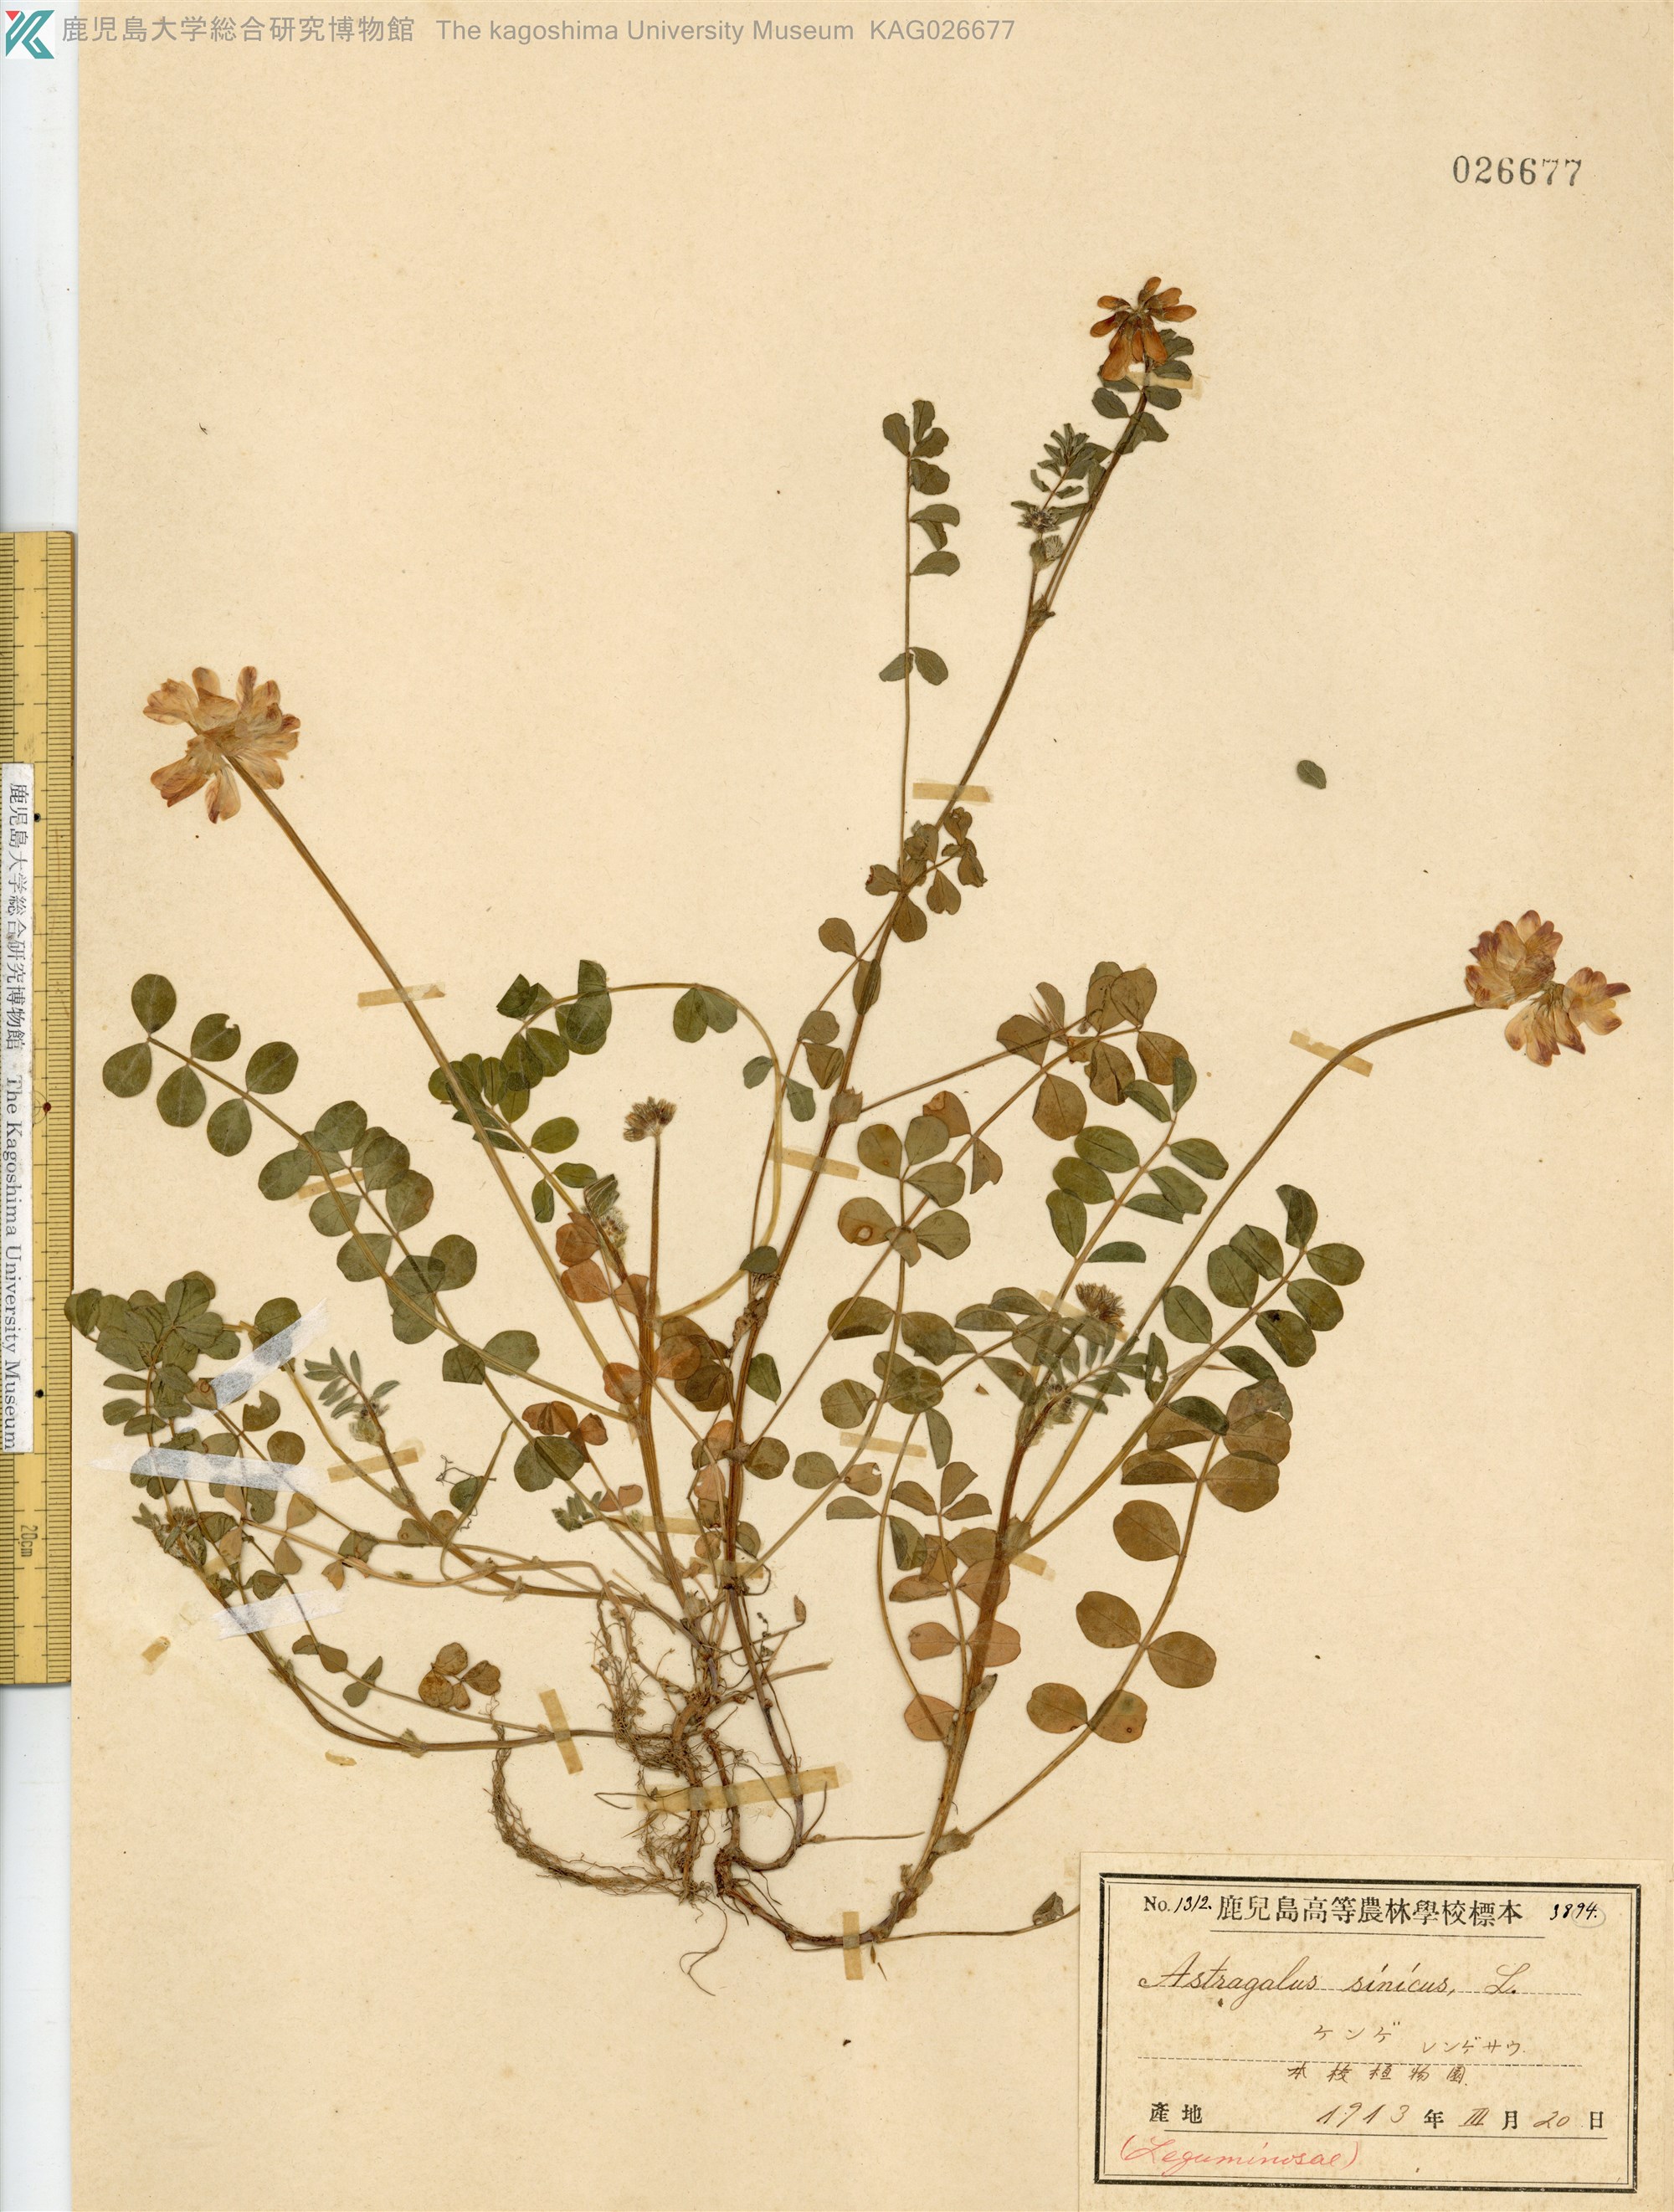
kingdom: Plantae
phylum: Tracheophyta
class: Magnoliopsida
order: Fabales
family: Fabaceae
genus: Astragalus
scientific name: Astragalus sinicus
